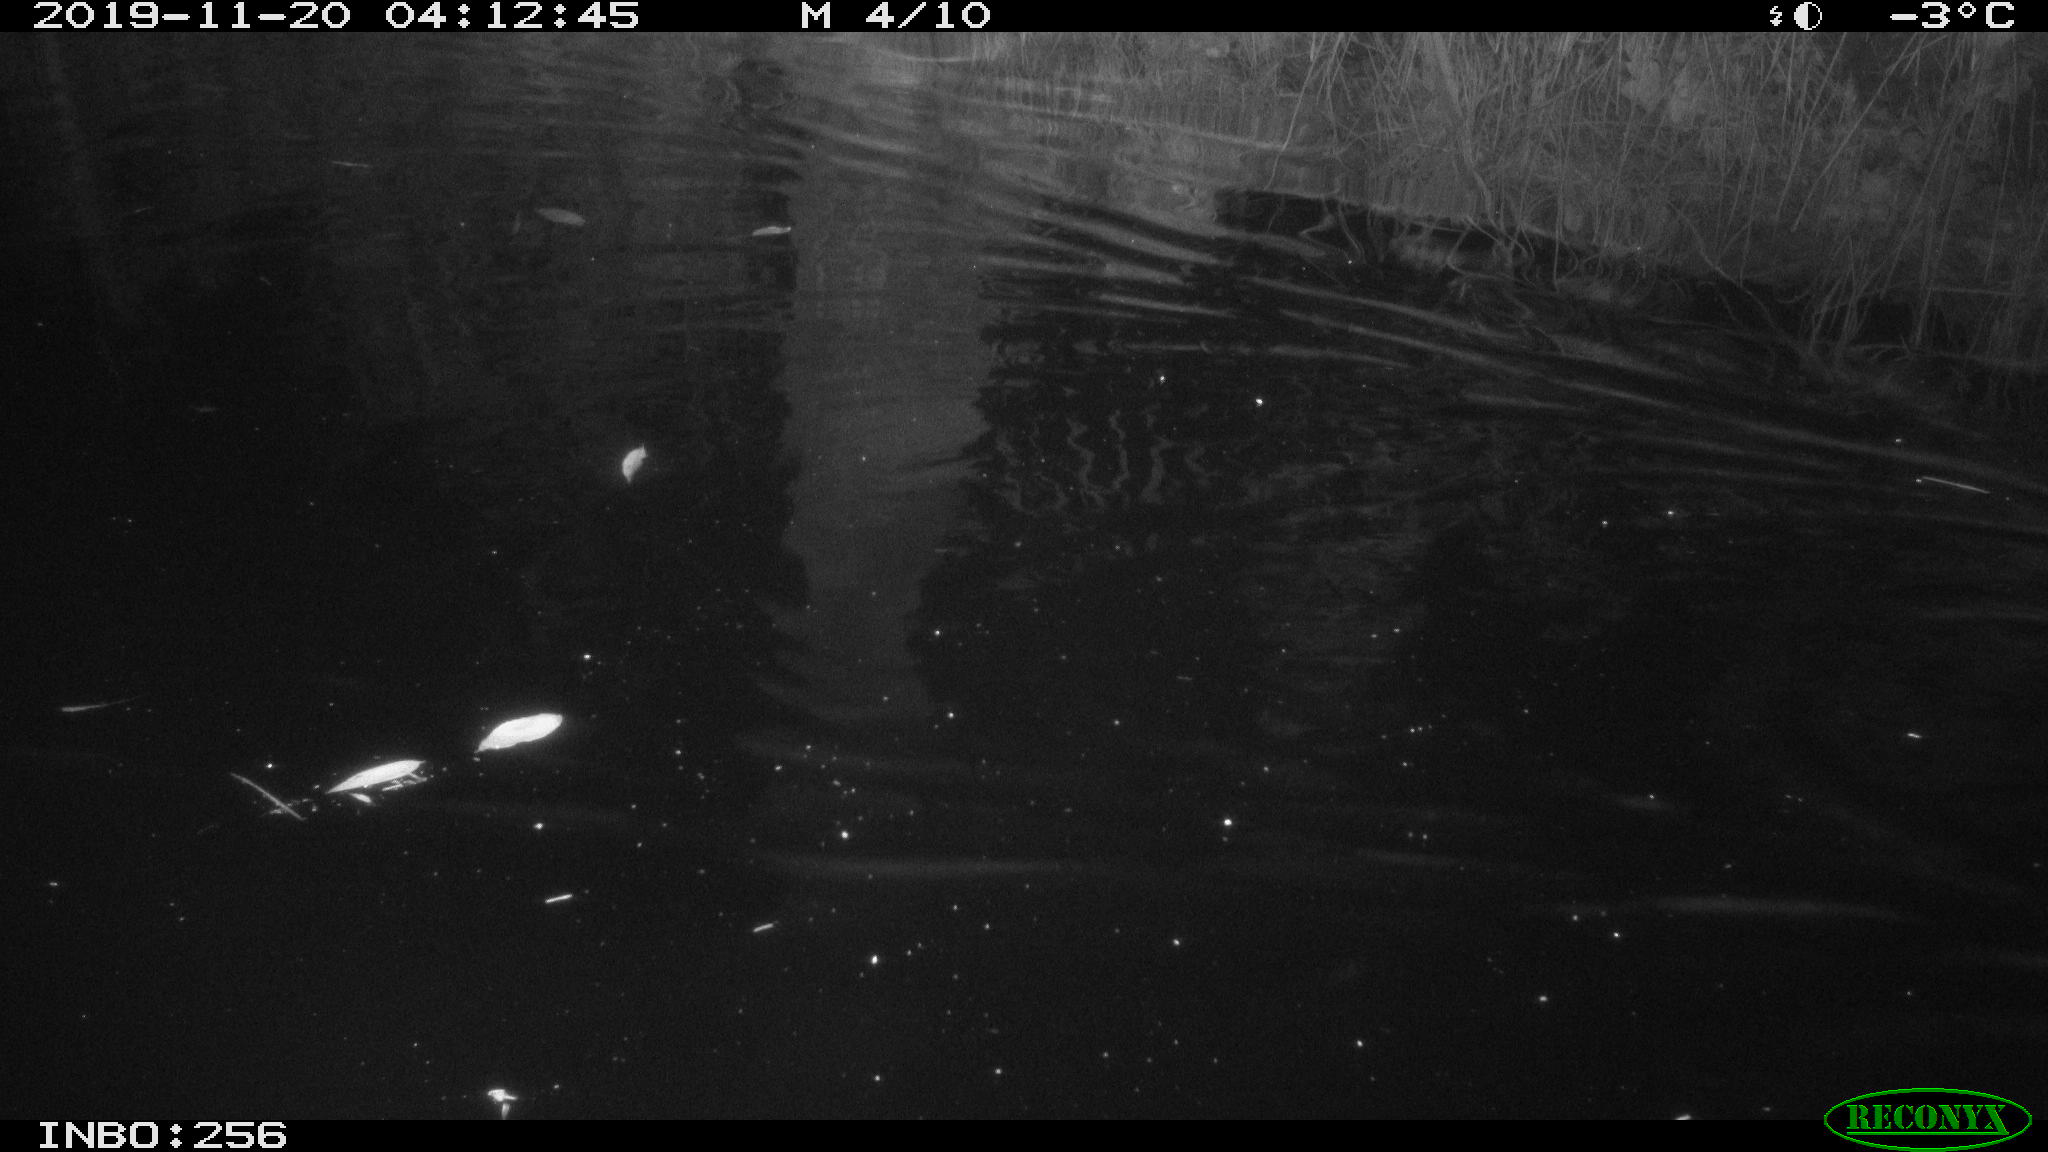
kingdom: Animalia
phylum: Chordata
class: Mammalia
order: Rodentia
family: Cricetidae
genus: Ondatra
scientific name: Ondatra zibethicus
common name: Muskrat
